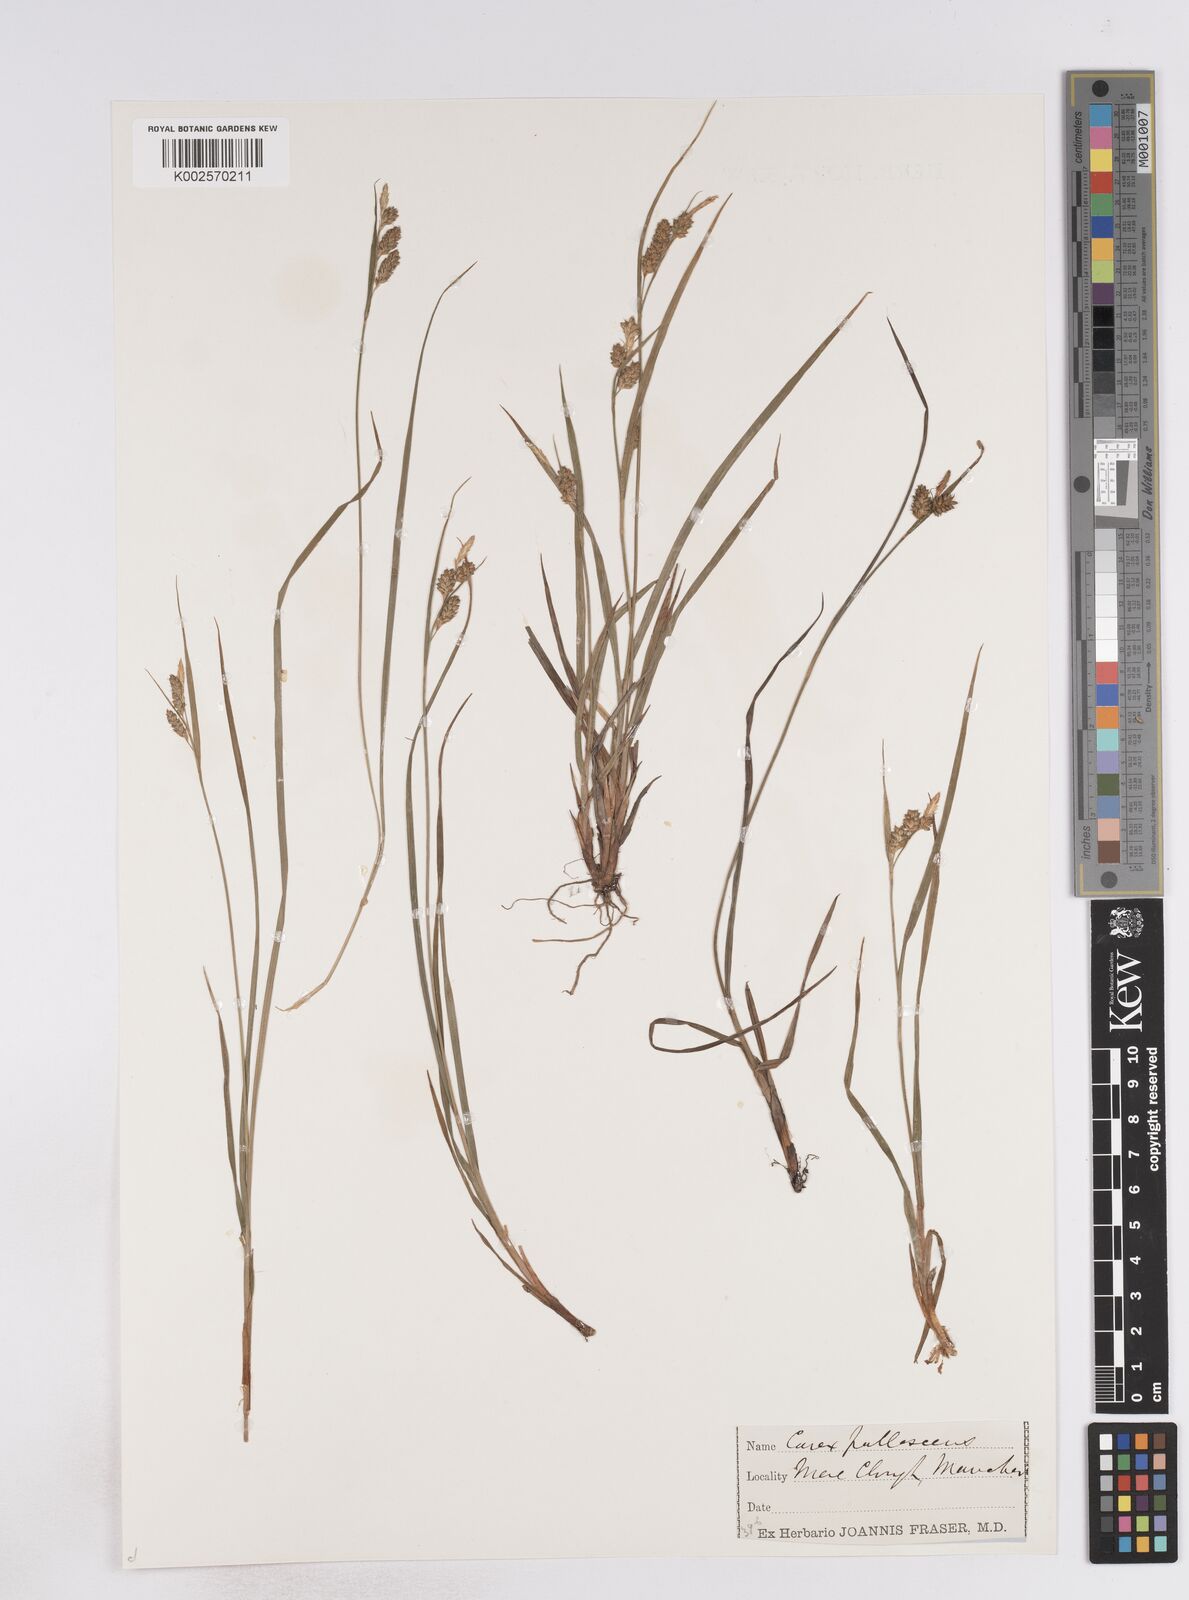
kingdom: Plantae
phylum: Tracheophyta
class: Liliopsida
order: Poales
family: Cyperaceae
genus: Carex
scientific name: Carex pallescens
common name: Pale sedge
